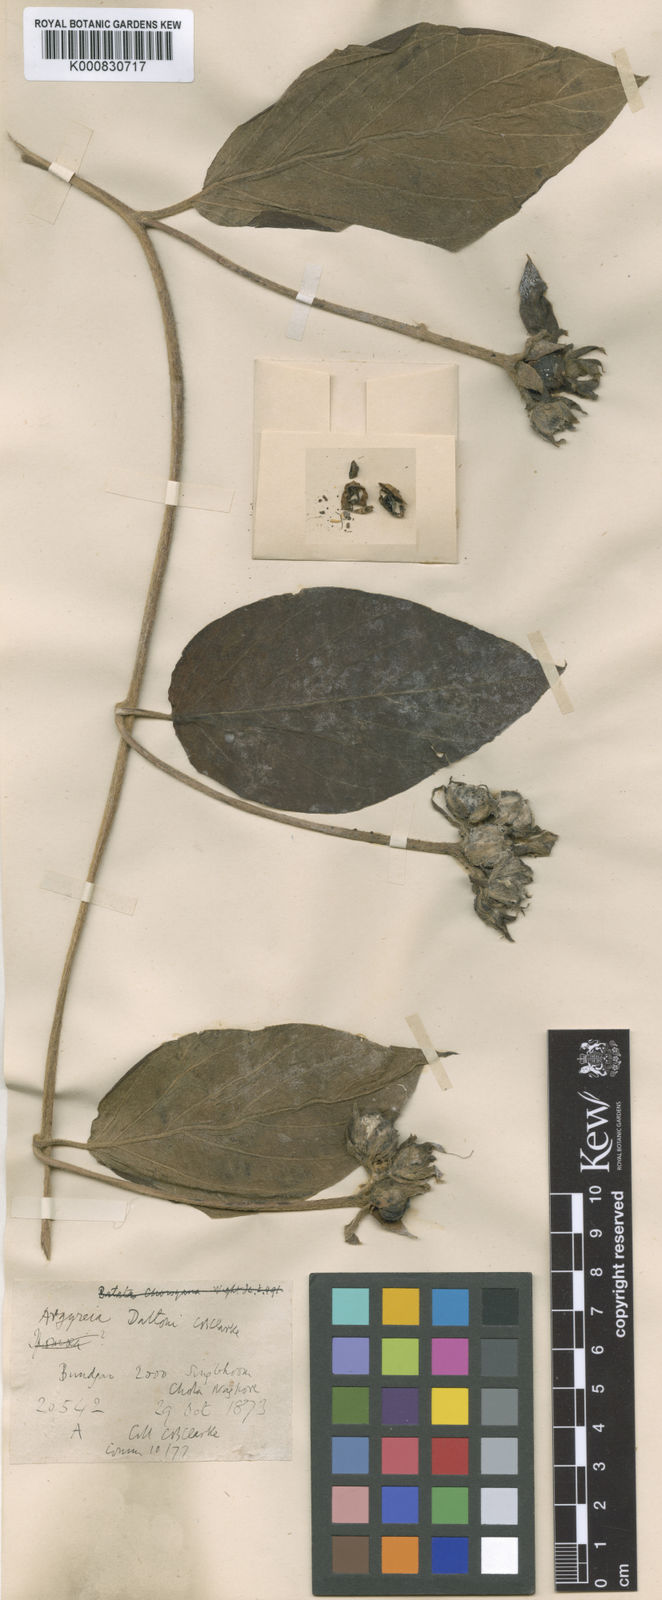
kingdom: Plantae
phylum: Tracheophyta
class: Magnoliopsida
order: Solanales
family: Convolvulaceae
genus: Argyreia
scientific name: Argyreia daltonii
